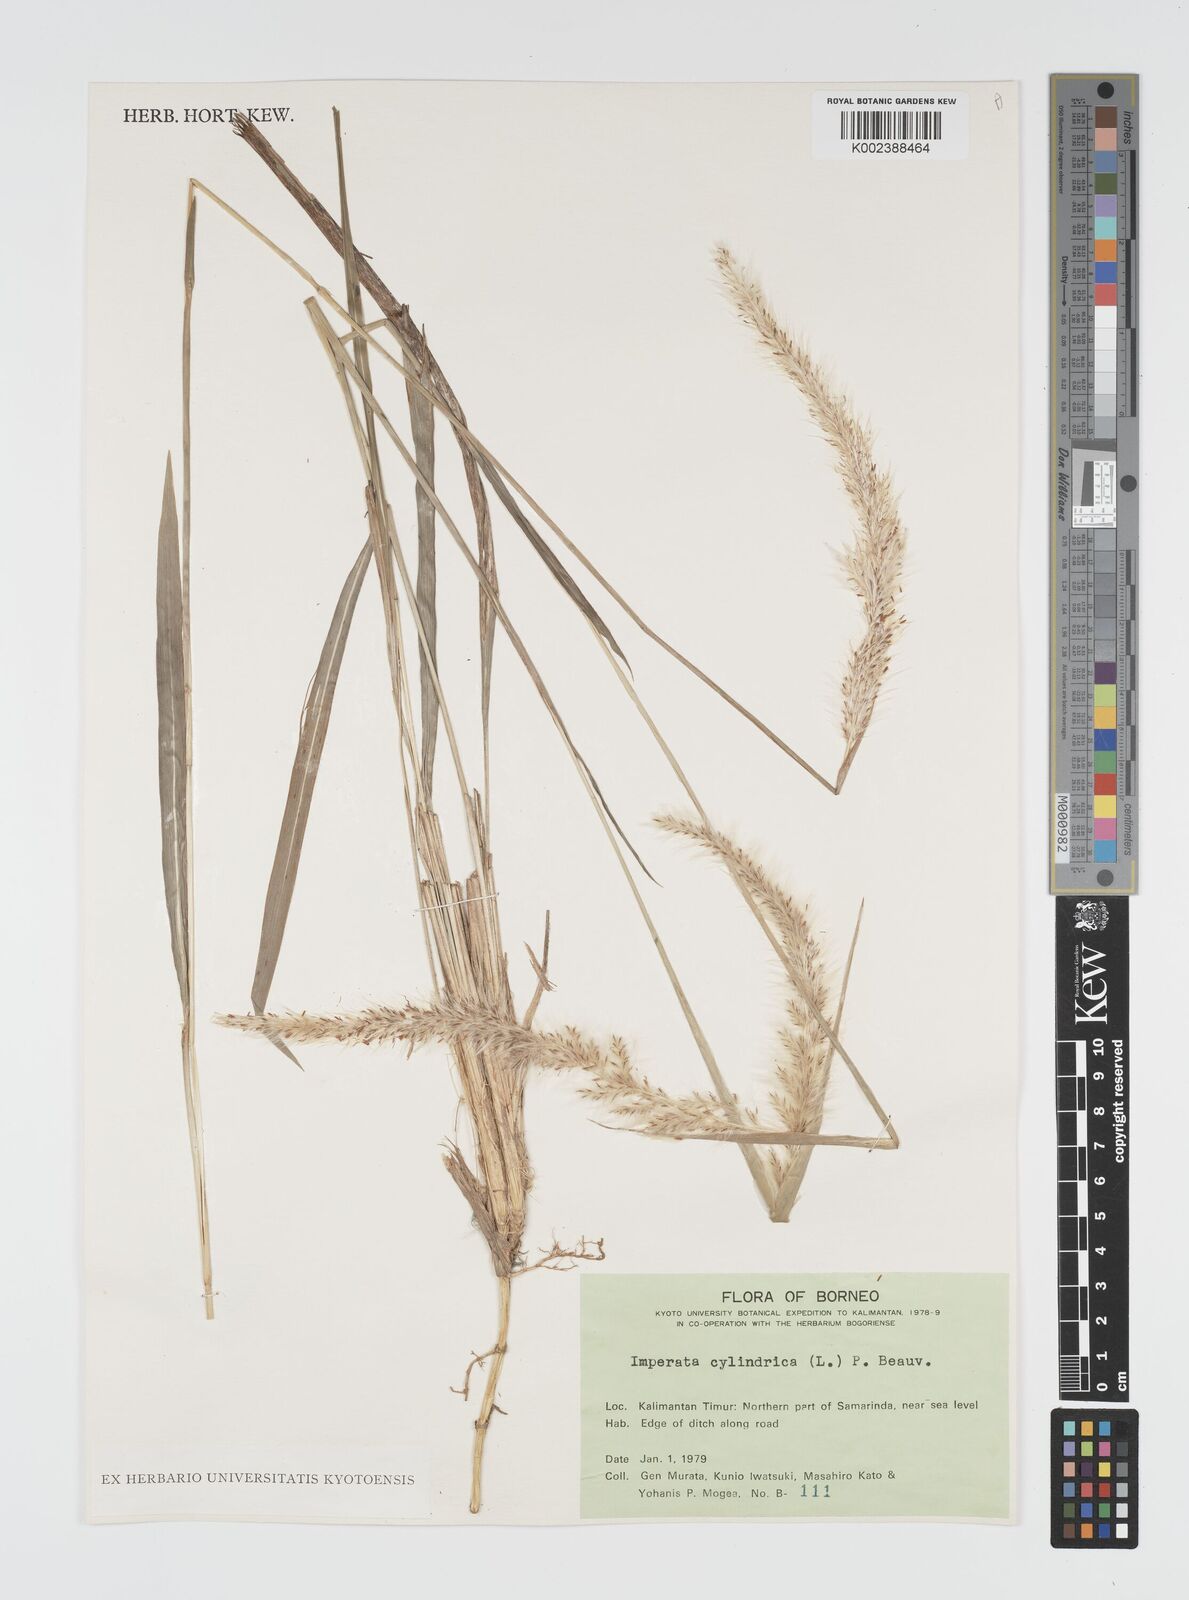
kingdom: Plantae
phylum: Tracheophyta
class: Liliopsida
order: Poales
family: Poaceae
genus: Imperata
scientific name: Imperata cylindrica
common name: Cogongrass
